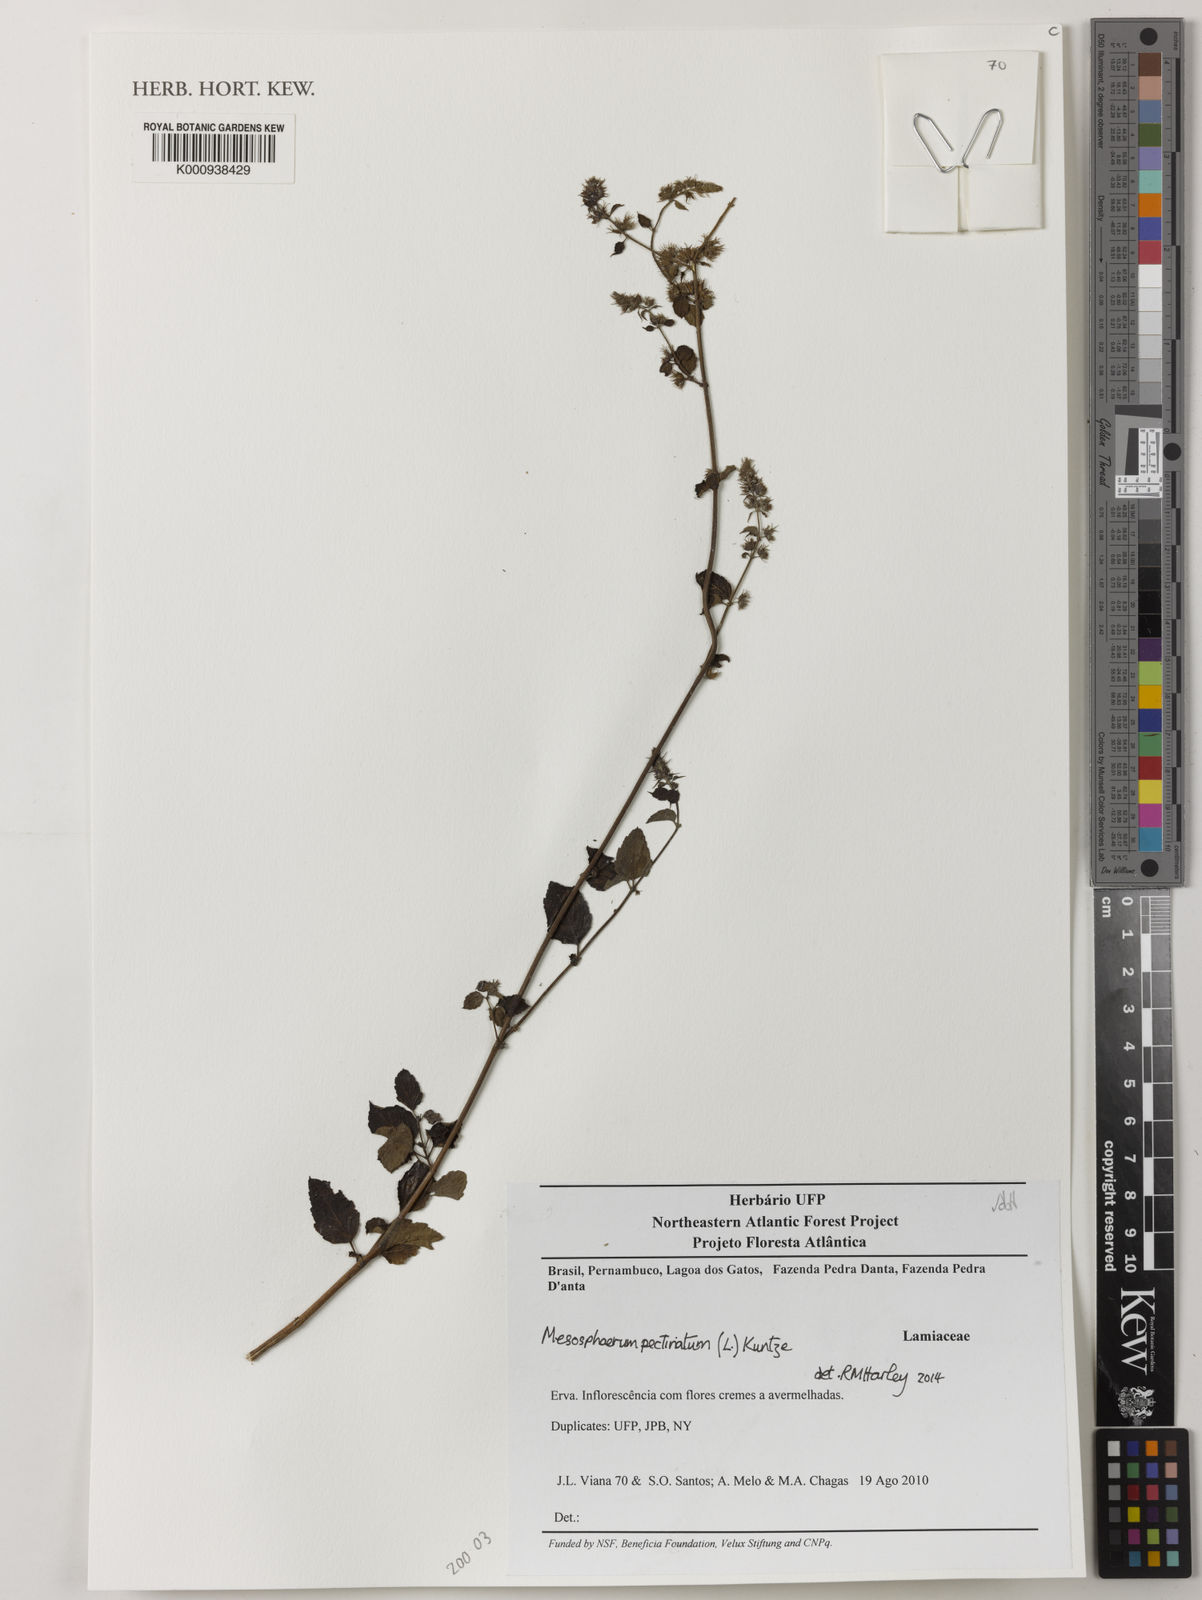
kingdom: Plantae
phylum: Tracheophyta
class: Magnoliopsida
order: Lamiales
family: Lamiaceae
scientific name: Lamiaceae
